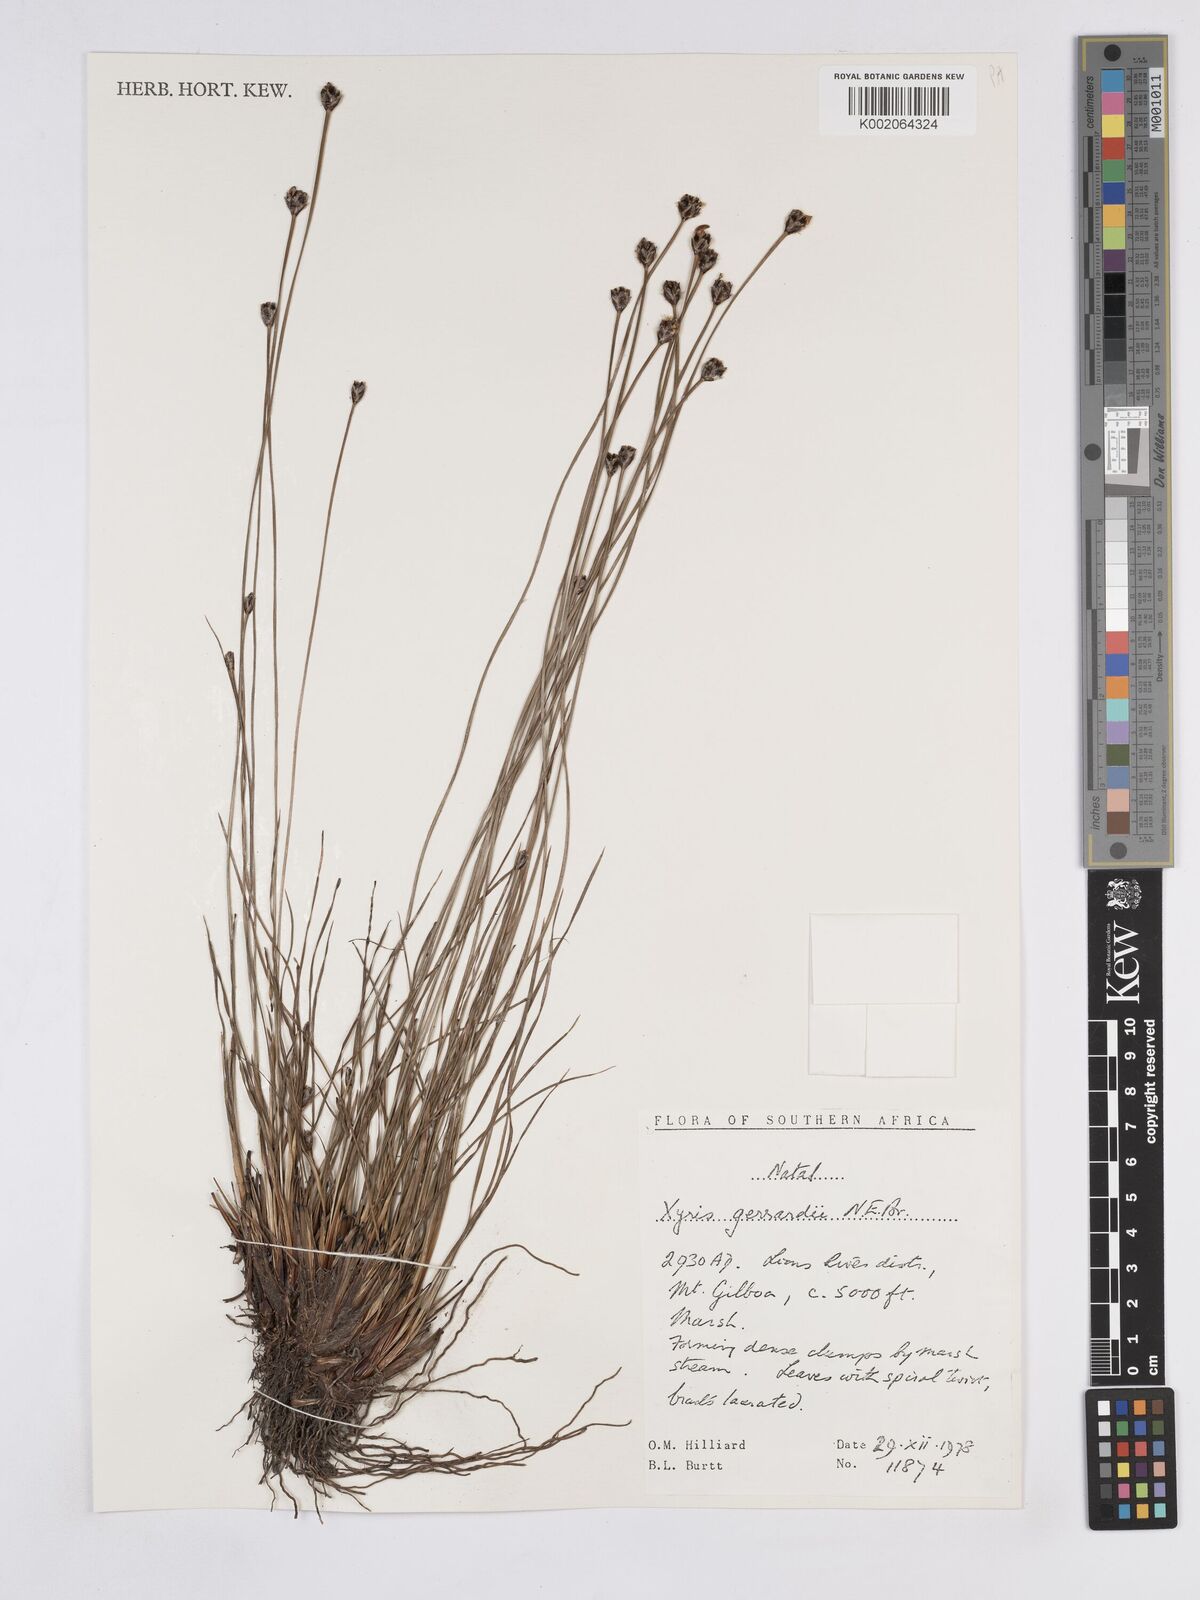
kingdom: Plantae
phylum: Tracheophyta
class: Liliopsida
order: Poales
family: Xyridaceae
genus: Xyris
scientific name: Xyris gerrardii
